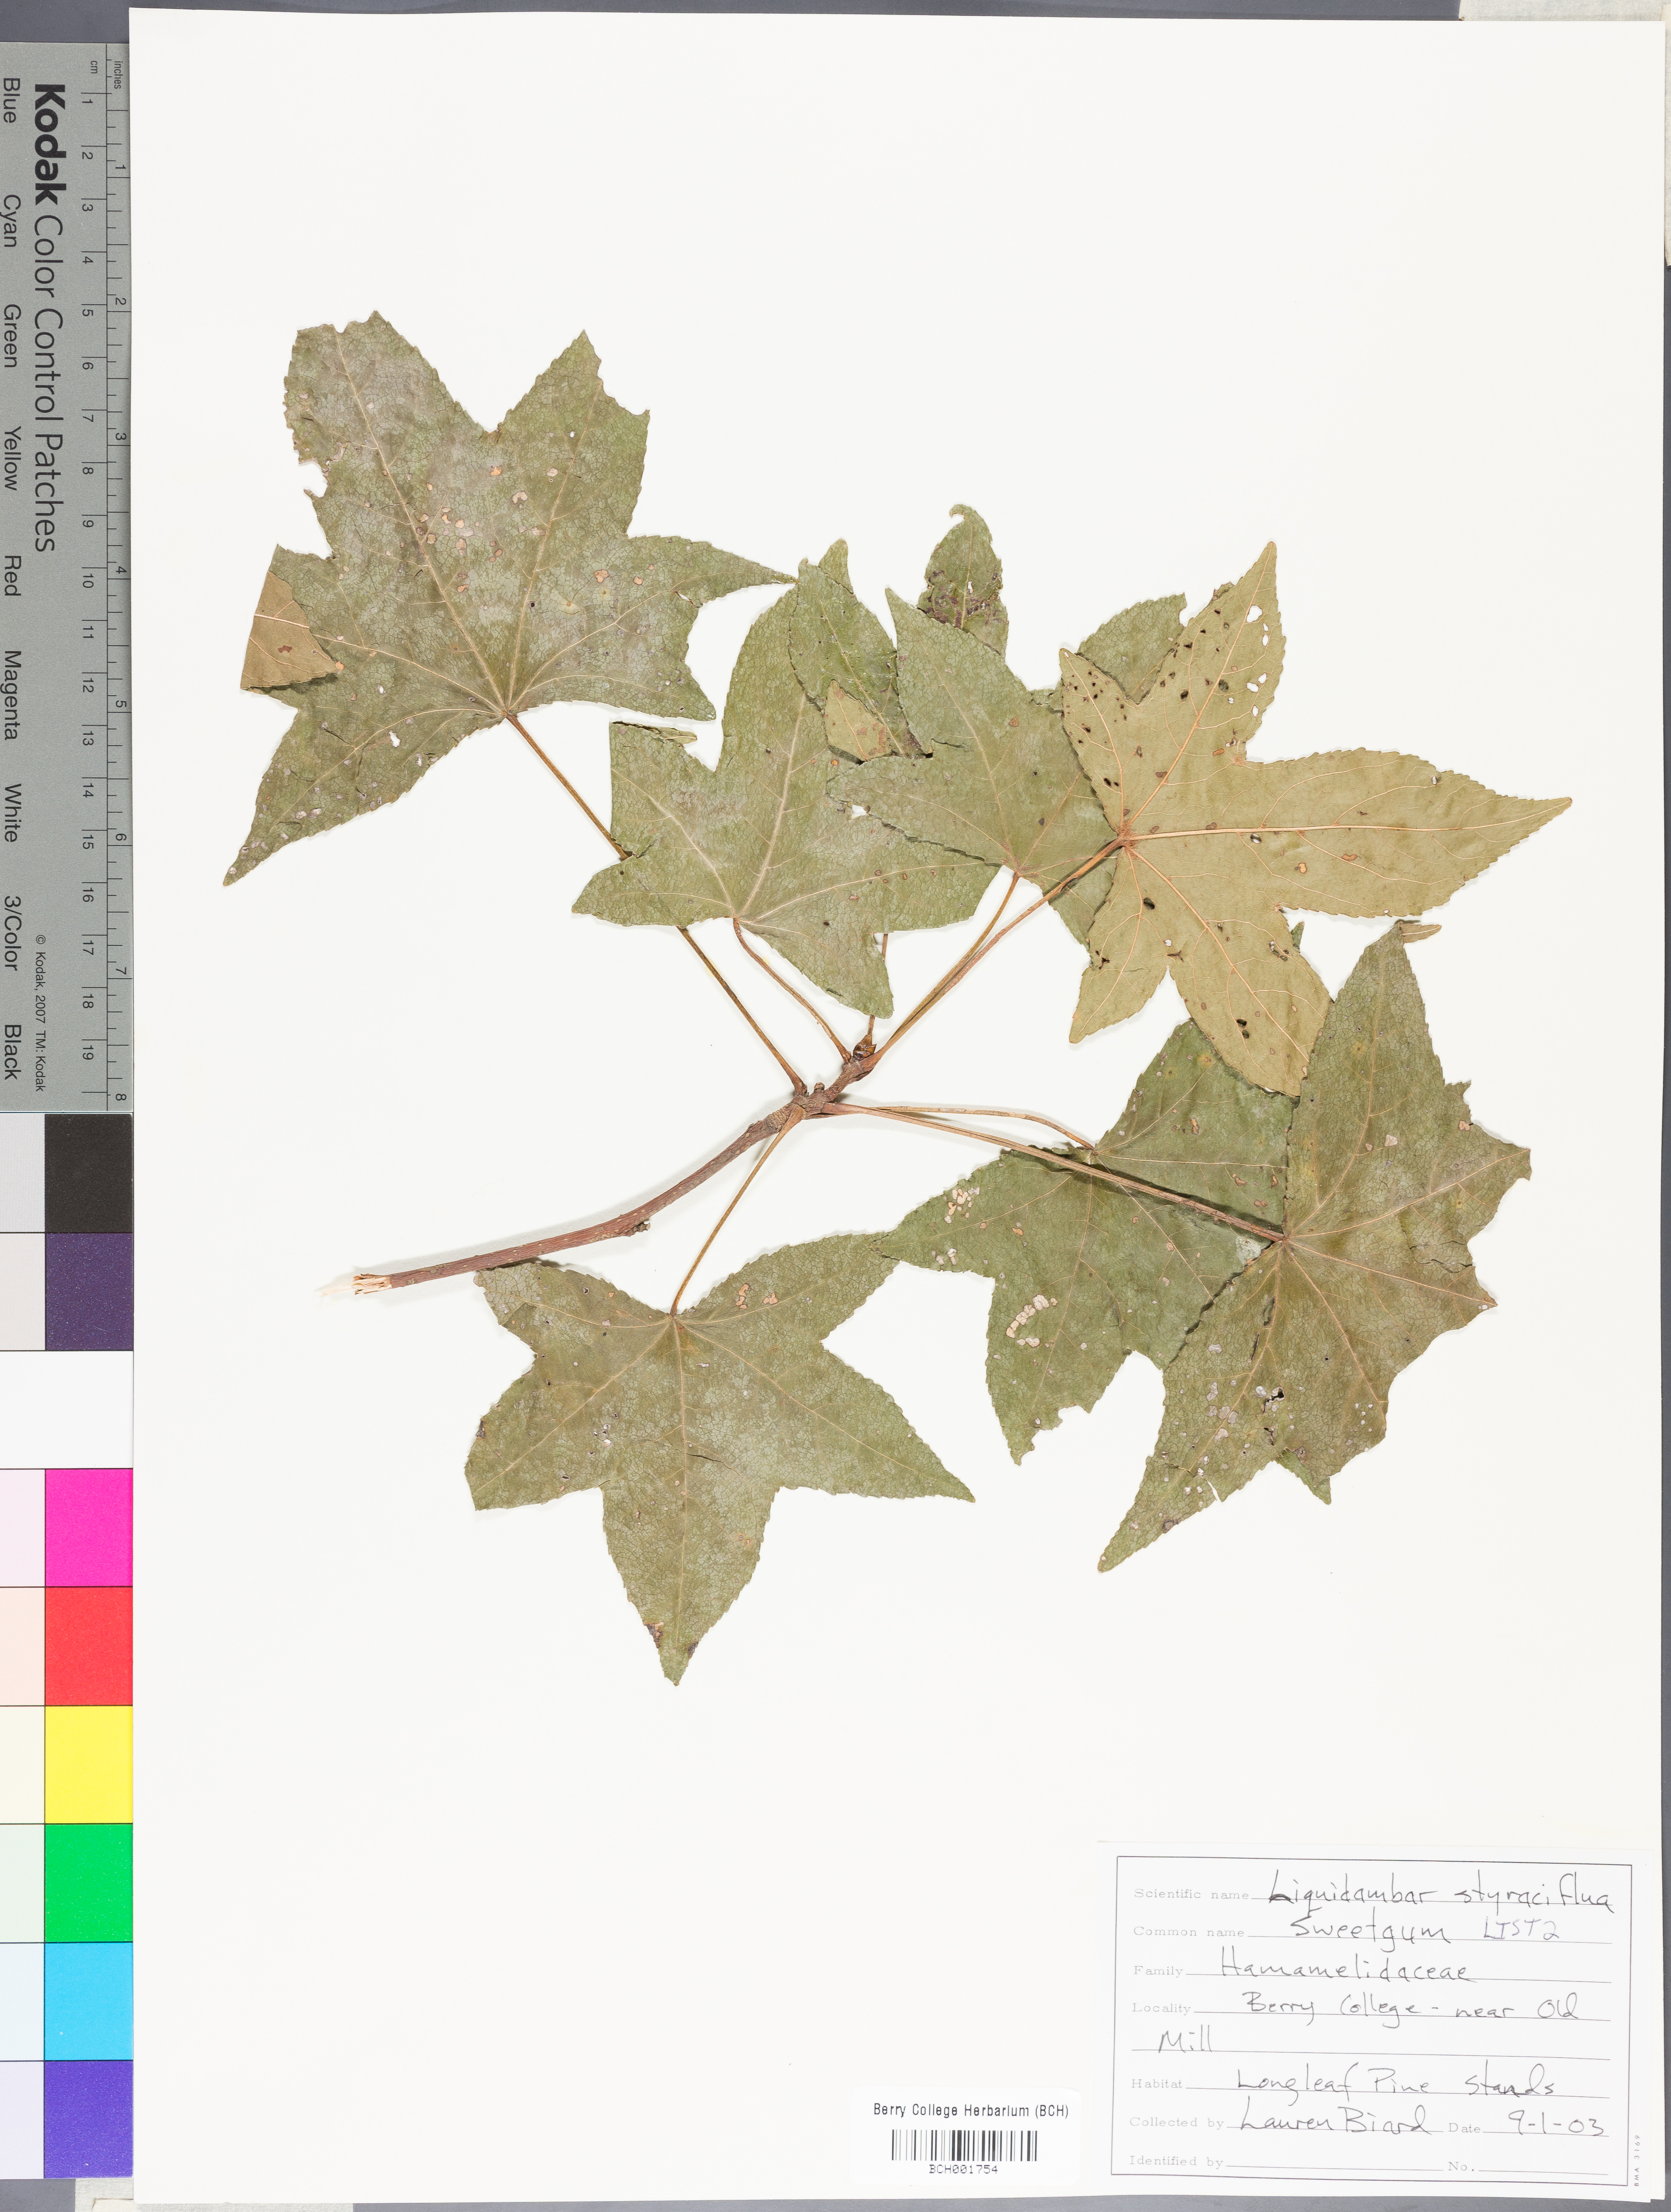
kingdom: Plantae
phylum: Tracheophyta
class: Magnoliopsida
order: Saxifragales
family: Altingiaceae
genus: Liquidambar
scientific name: Liquidambar styraciflua
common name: Sweet gum
